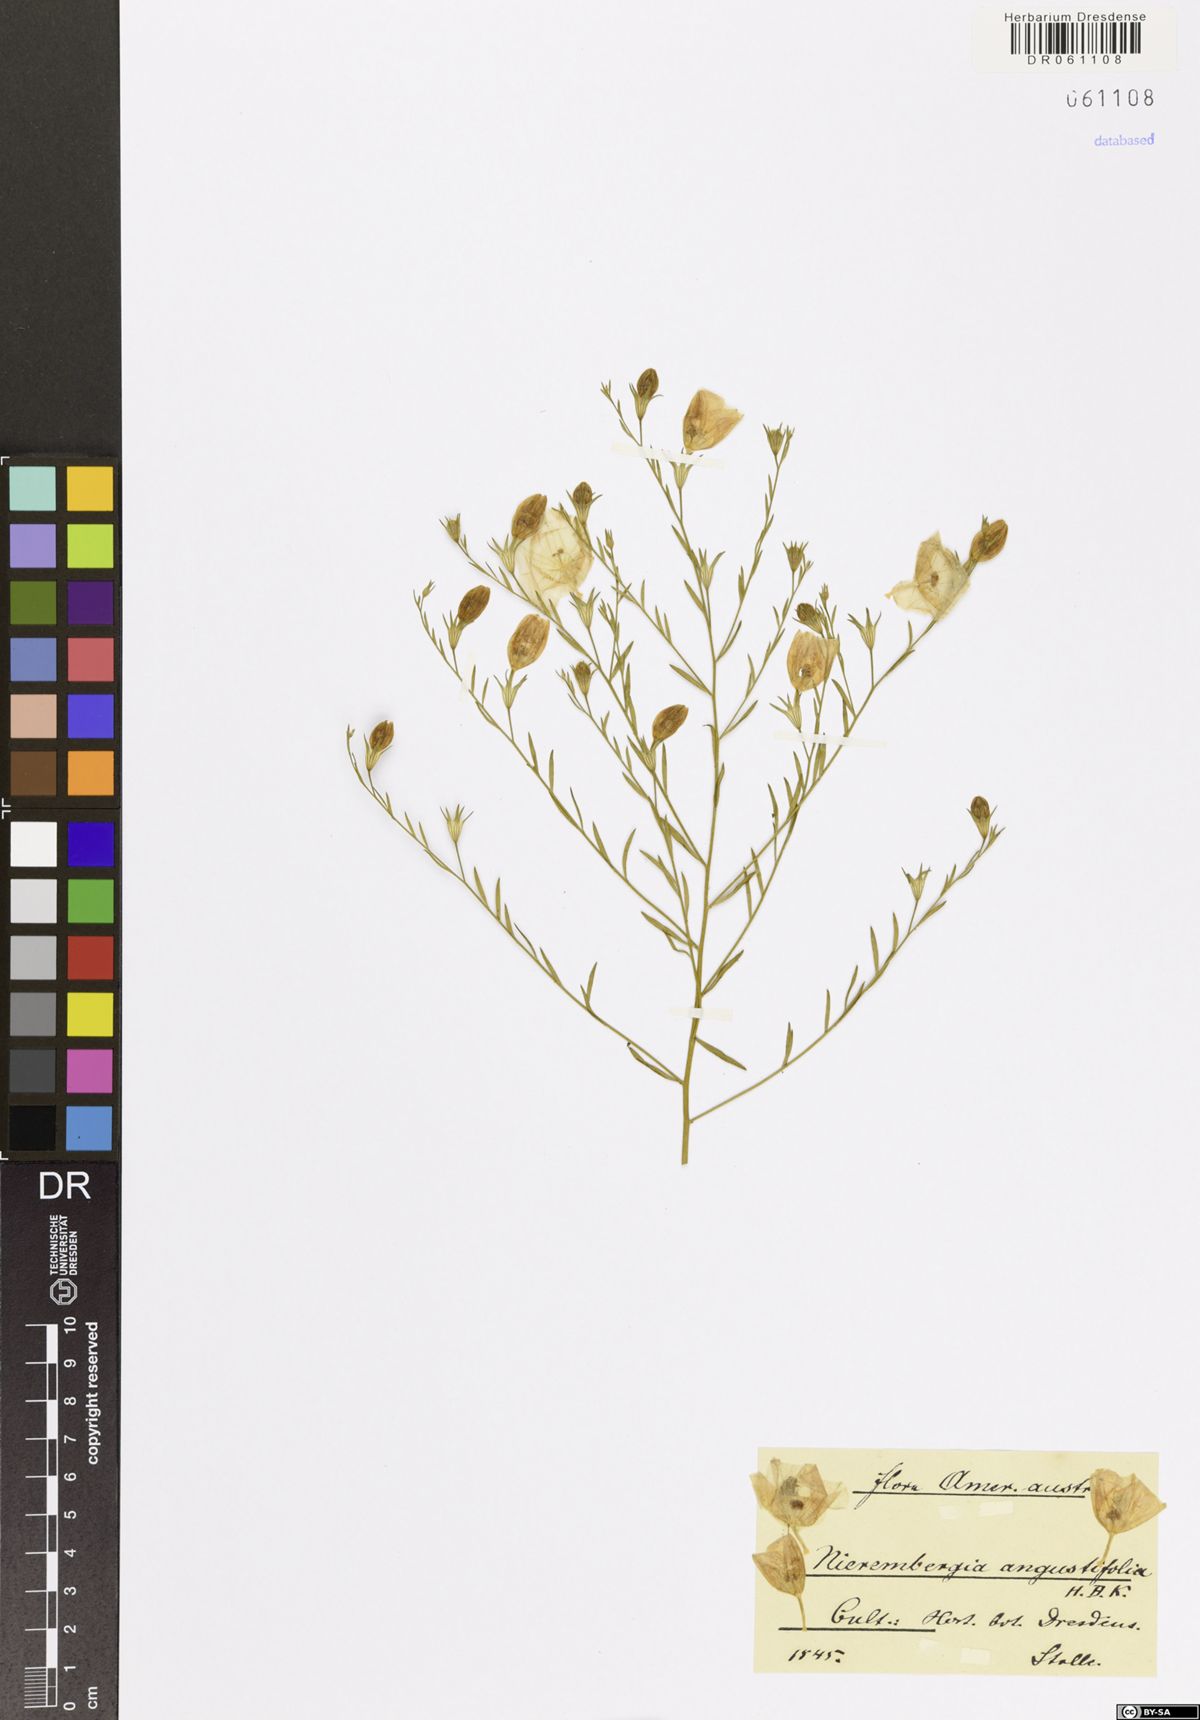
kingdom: Plantae
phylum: Tracheophyta
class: Magnoliopsida
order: Solanales
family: Solanaceae
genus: Nierembergia
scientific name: Nierembergia linariifolia
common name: Dwarf cupflower
